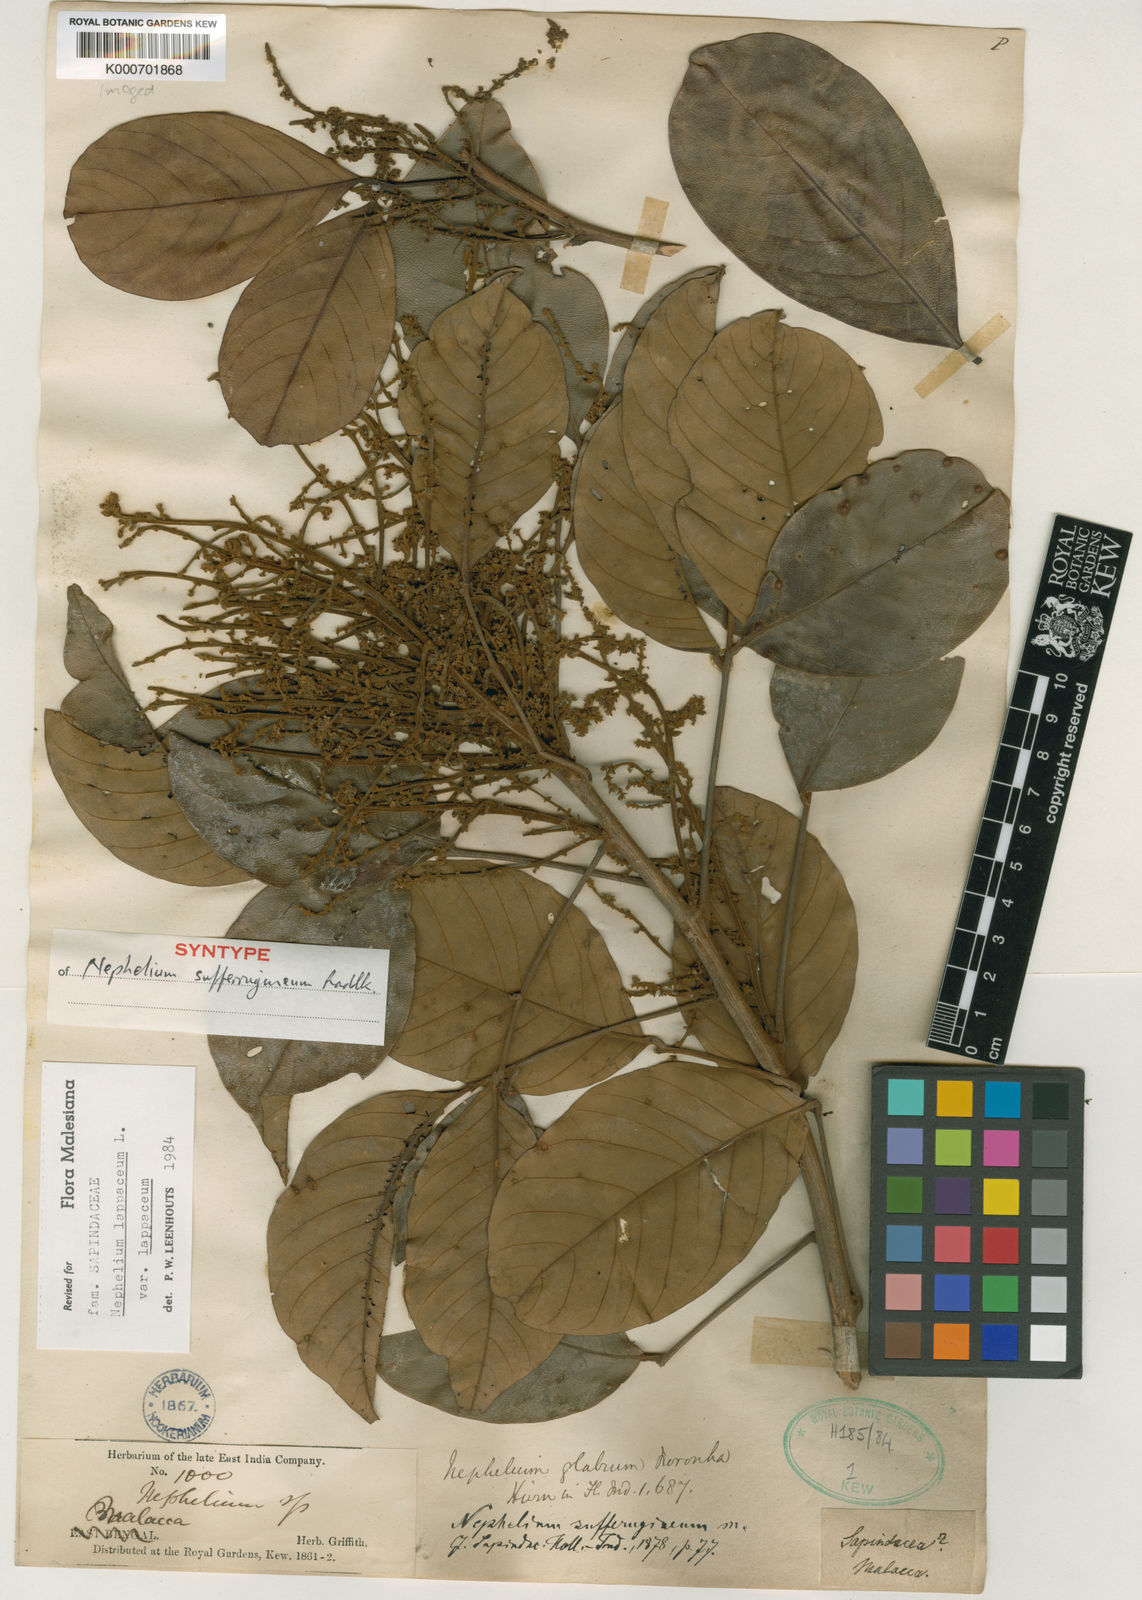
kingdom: Plantae
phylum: Tracheophyta
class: Magnoliopsida
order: Sapindales
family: Sapindaceae
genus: Nephelium
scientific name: Nephelium lappaceum
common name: Rambutan
